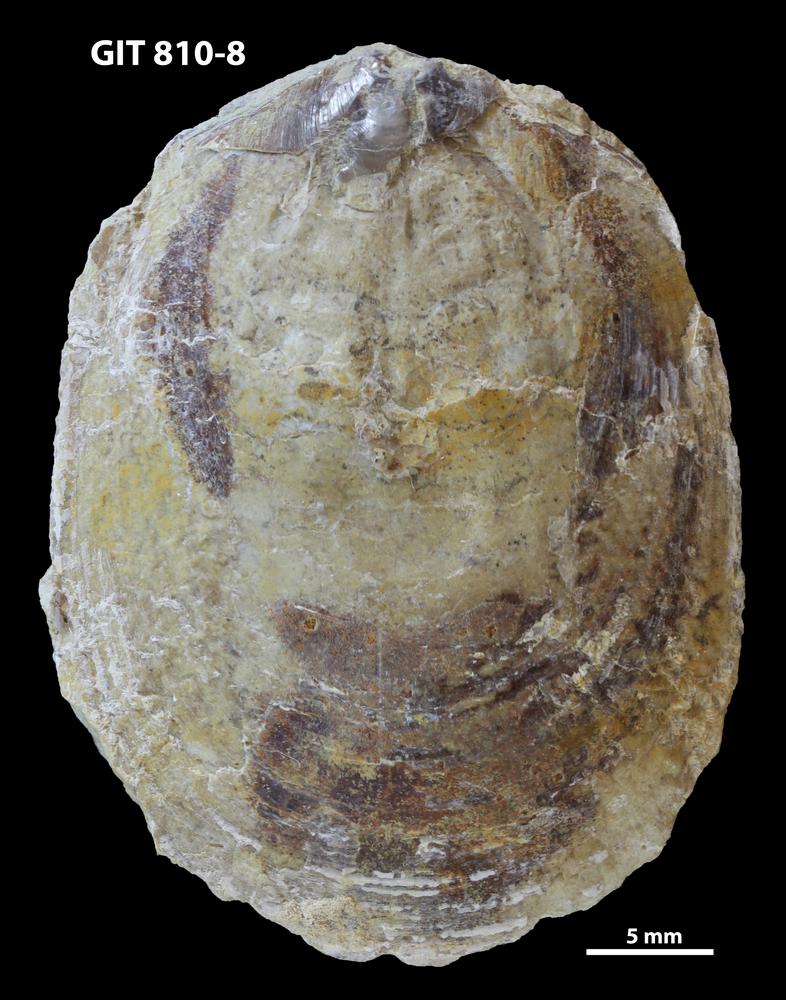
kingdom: Animalia
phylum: Brachiopoda
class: Lingulata
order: Lingulida
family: Pseudolingulidae
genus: Pseudolingula
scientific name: Pseudolingula Crania quadrata
